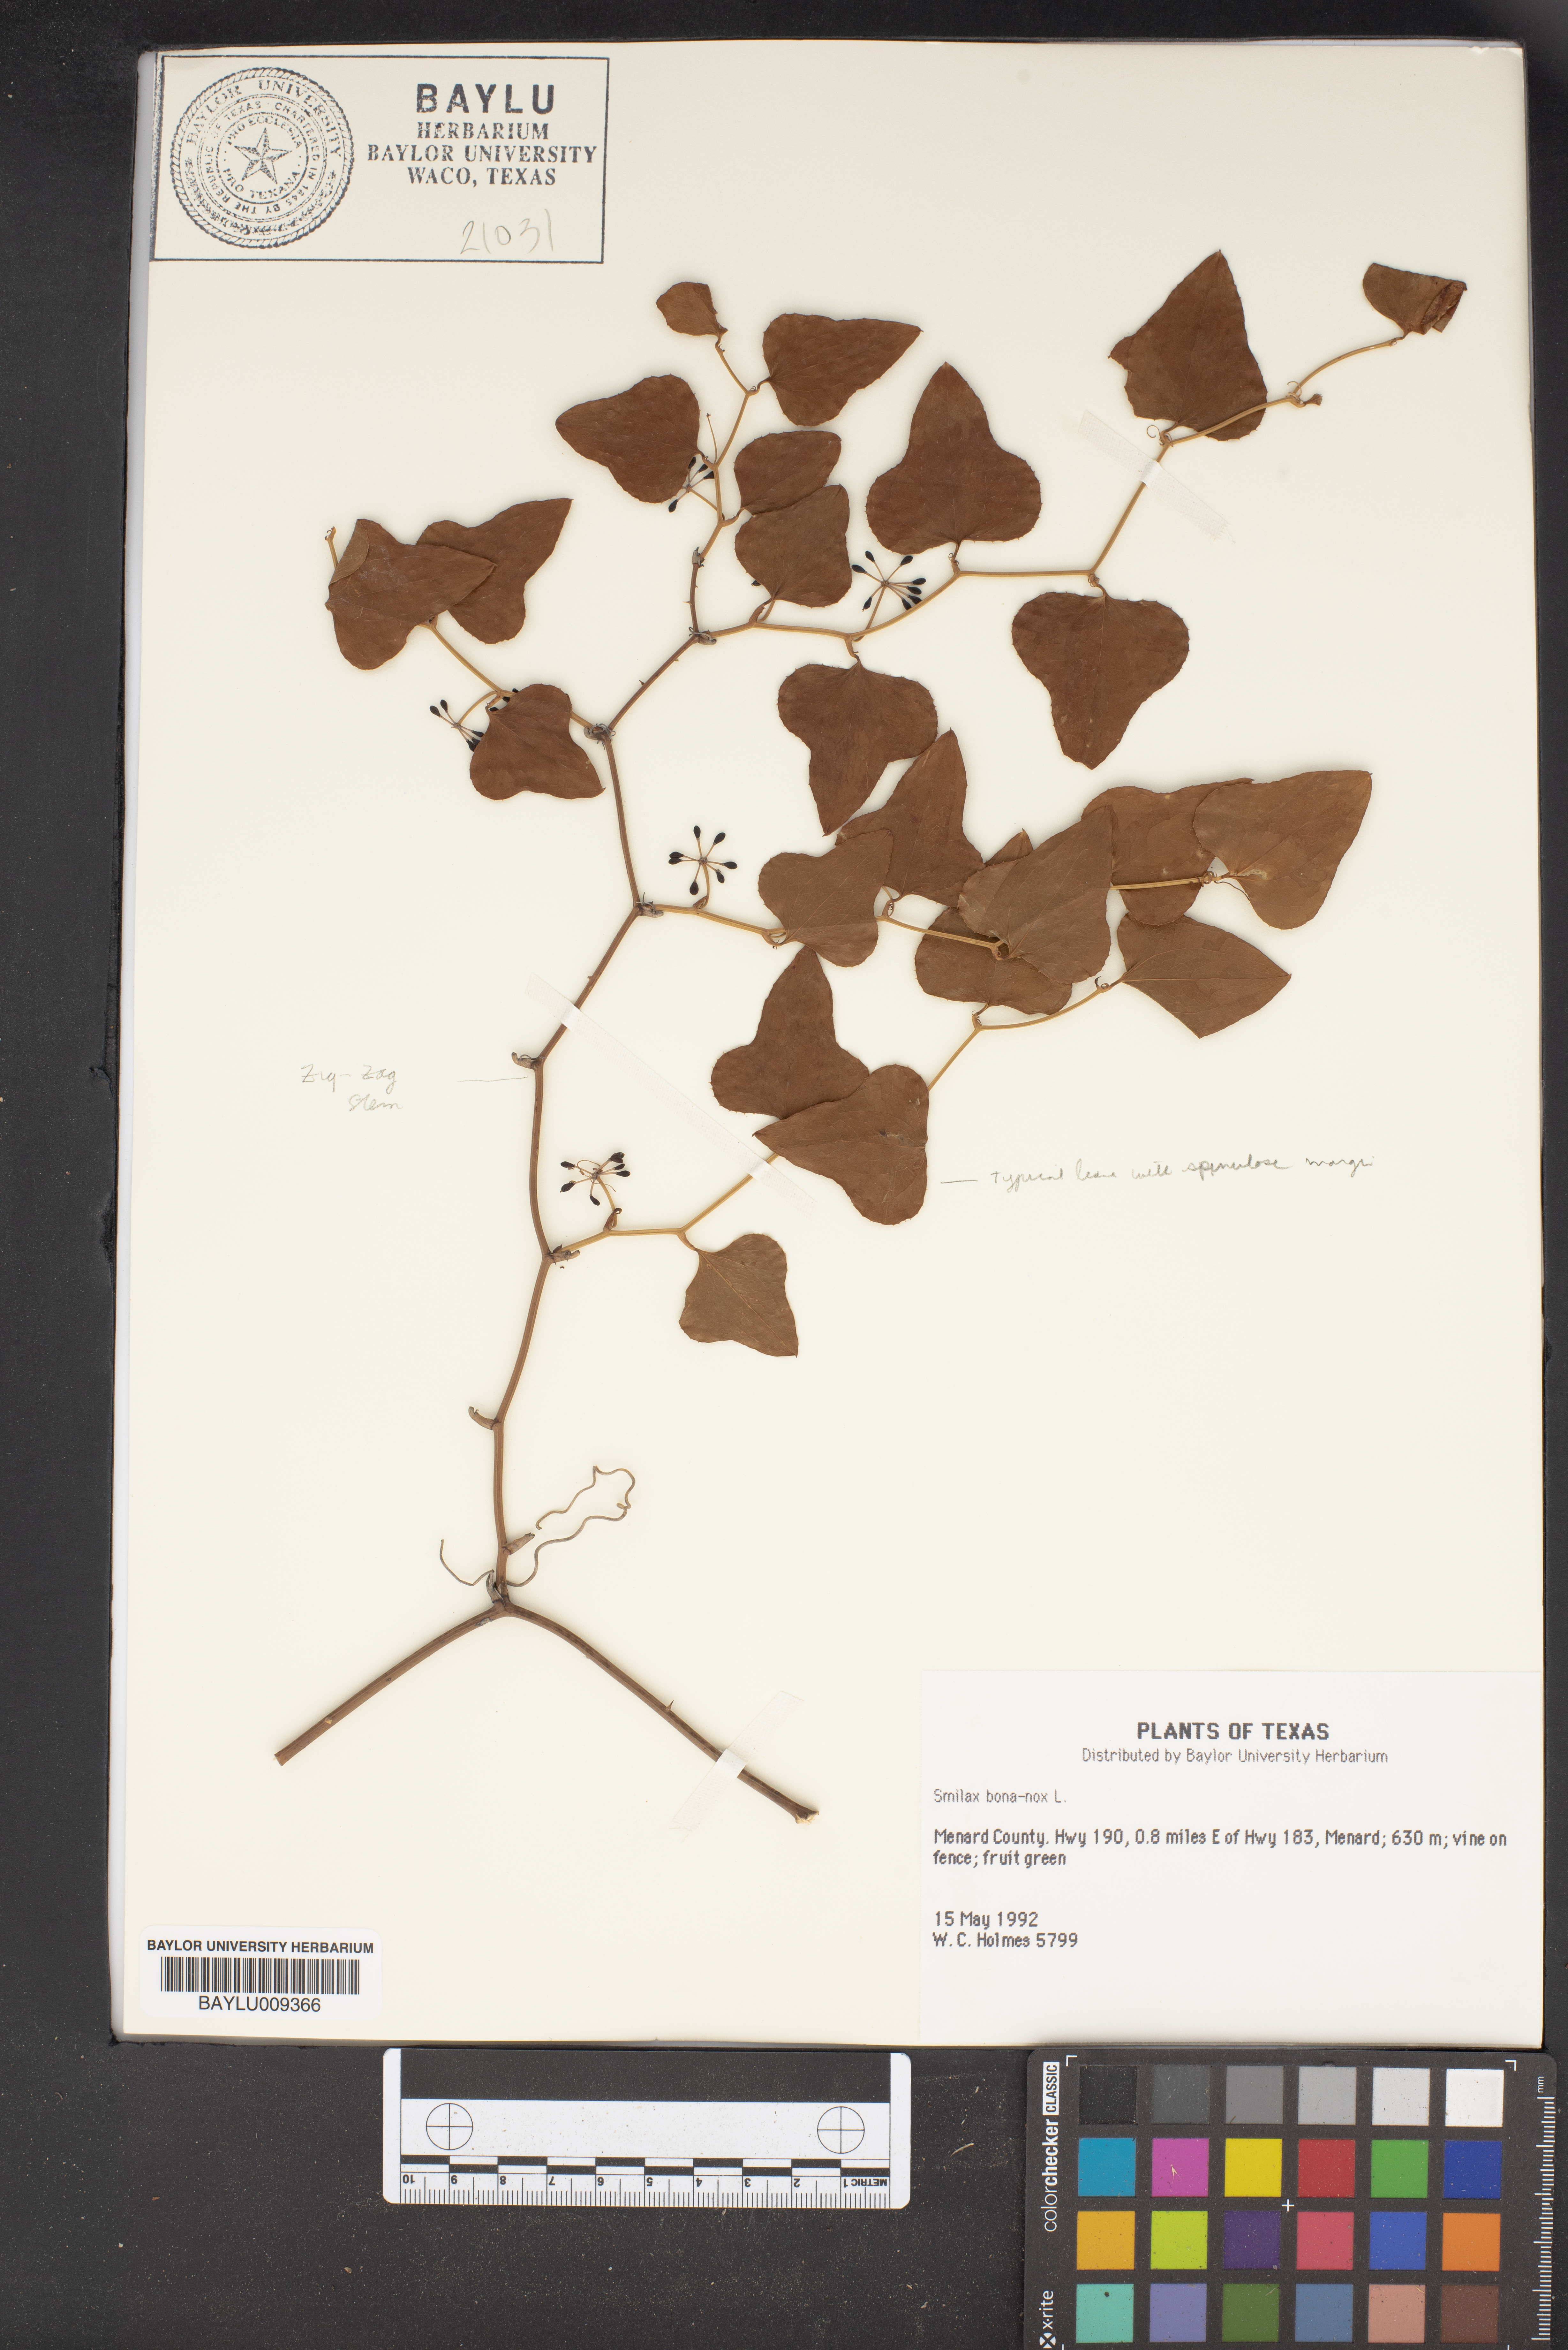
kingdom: Plantae
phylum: Tracheophyta
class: Liliopsida
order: Liliales
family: Smilacaceae
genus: Smilax
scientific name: Smilax bona-nox
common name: Catbrier
